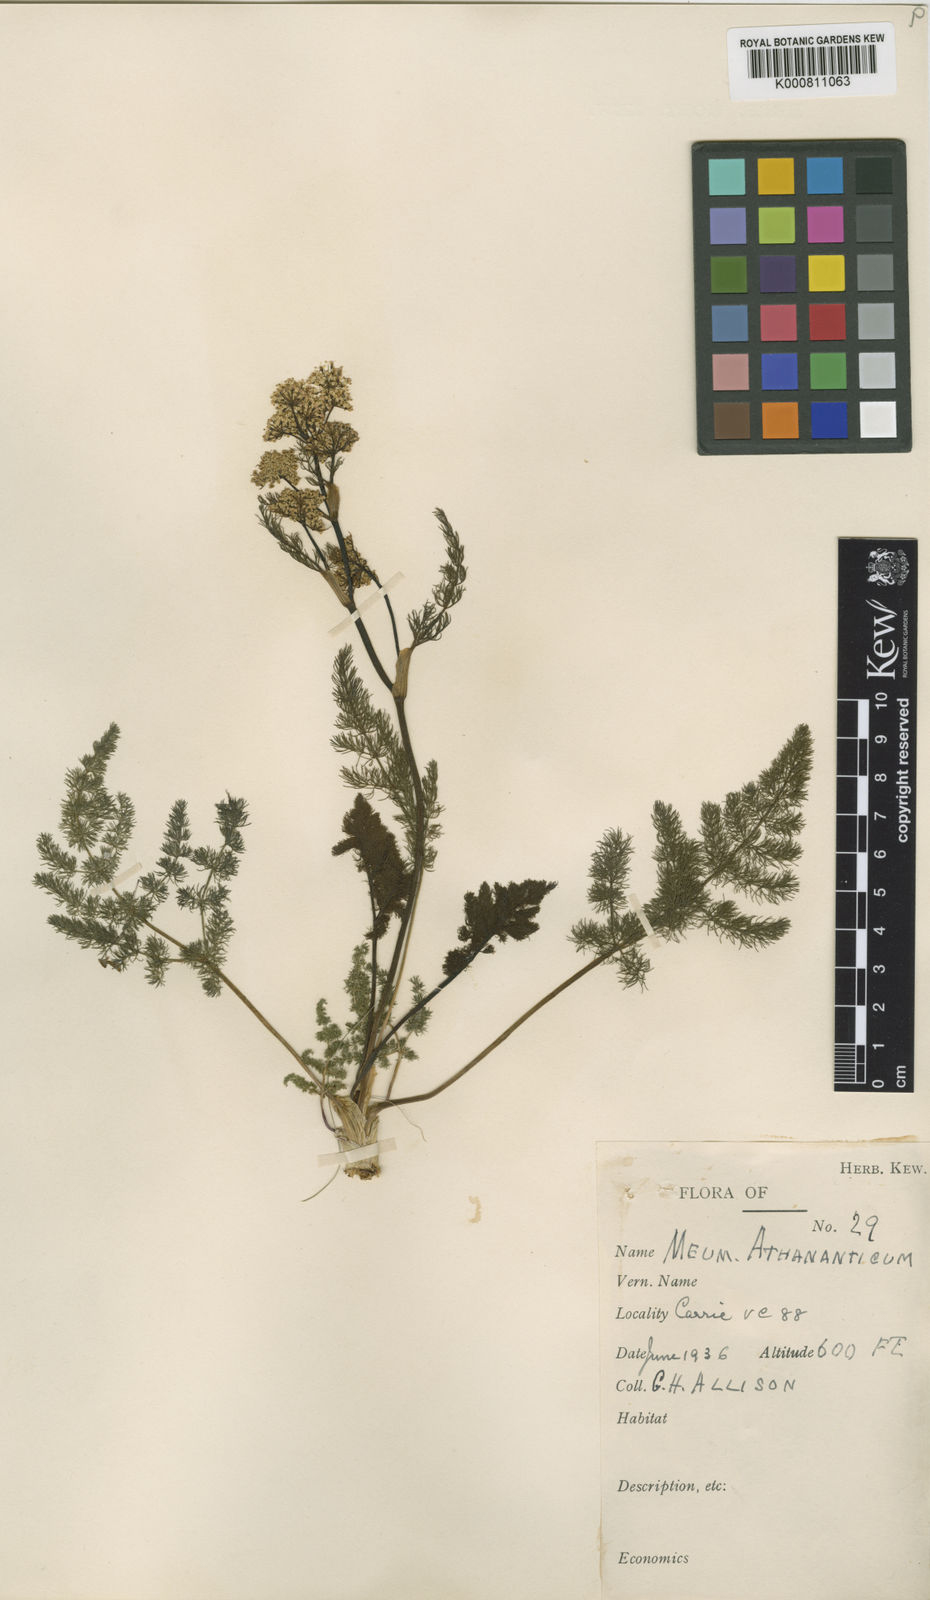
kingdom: Plantae
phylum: Tracheophyta
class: Magnoliopsida
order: Apiales
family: Apiaceae
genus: Meum
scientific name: Meum athamanticum
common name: Spignel
